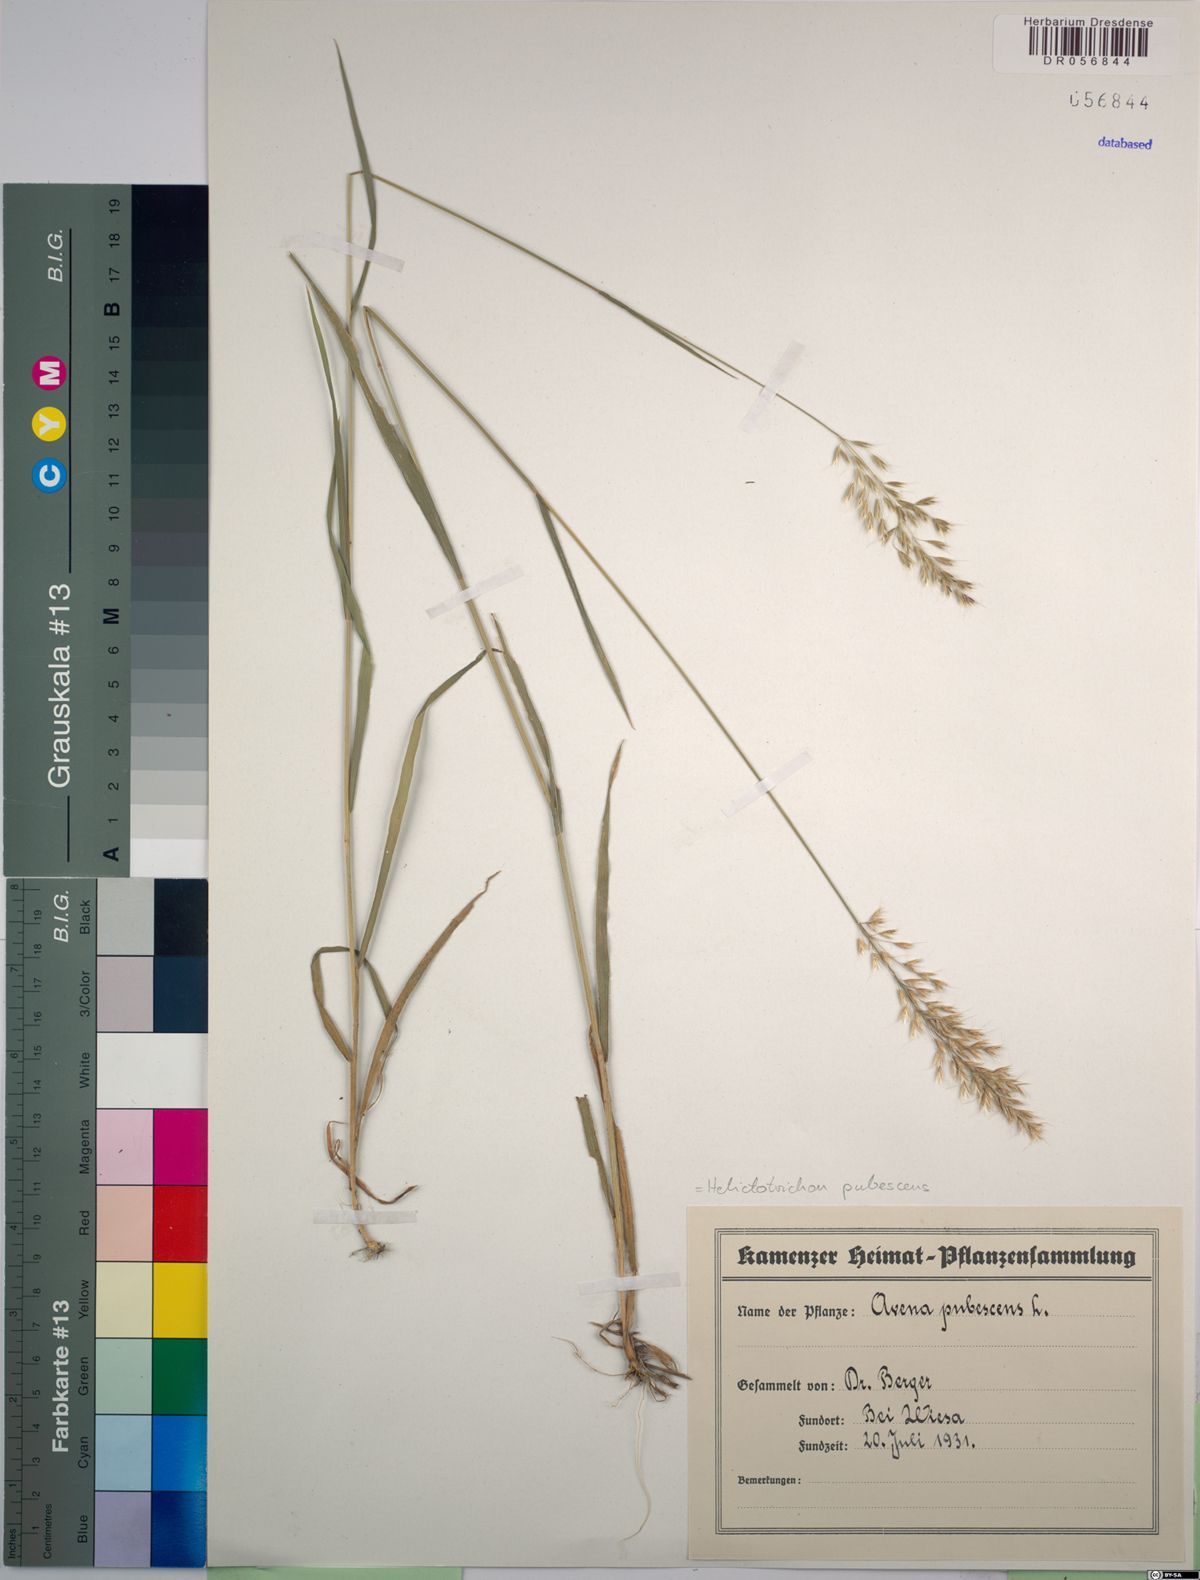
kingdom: Plantae
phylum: Tracheophyta
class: Liliopsida
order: Poales
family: Poaceae
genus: Avenula
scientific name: Avenula pubescens
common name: Downy alpine oatgrass
